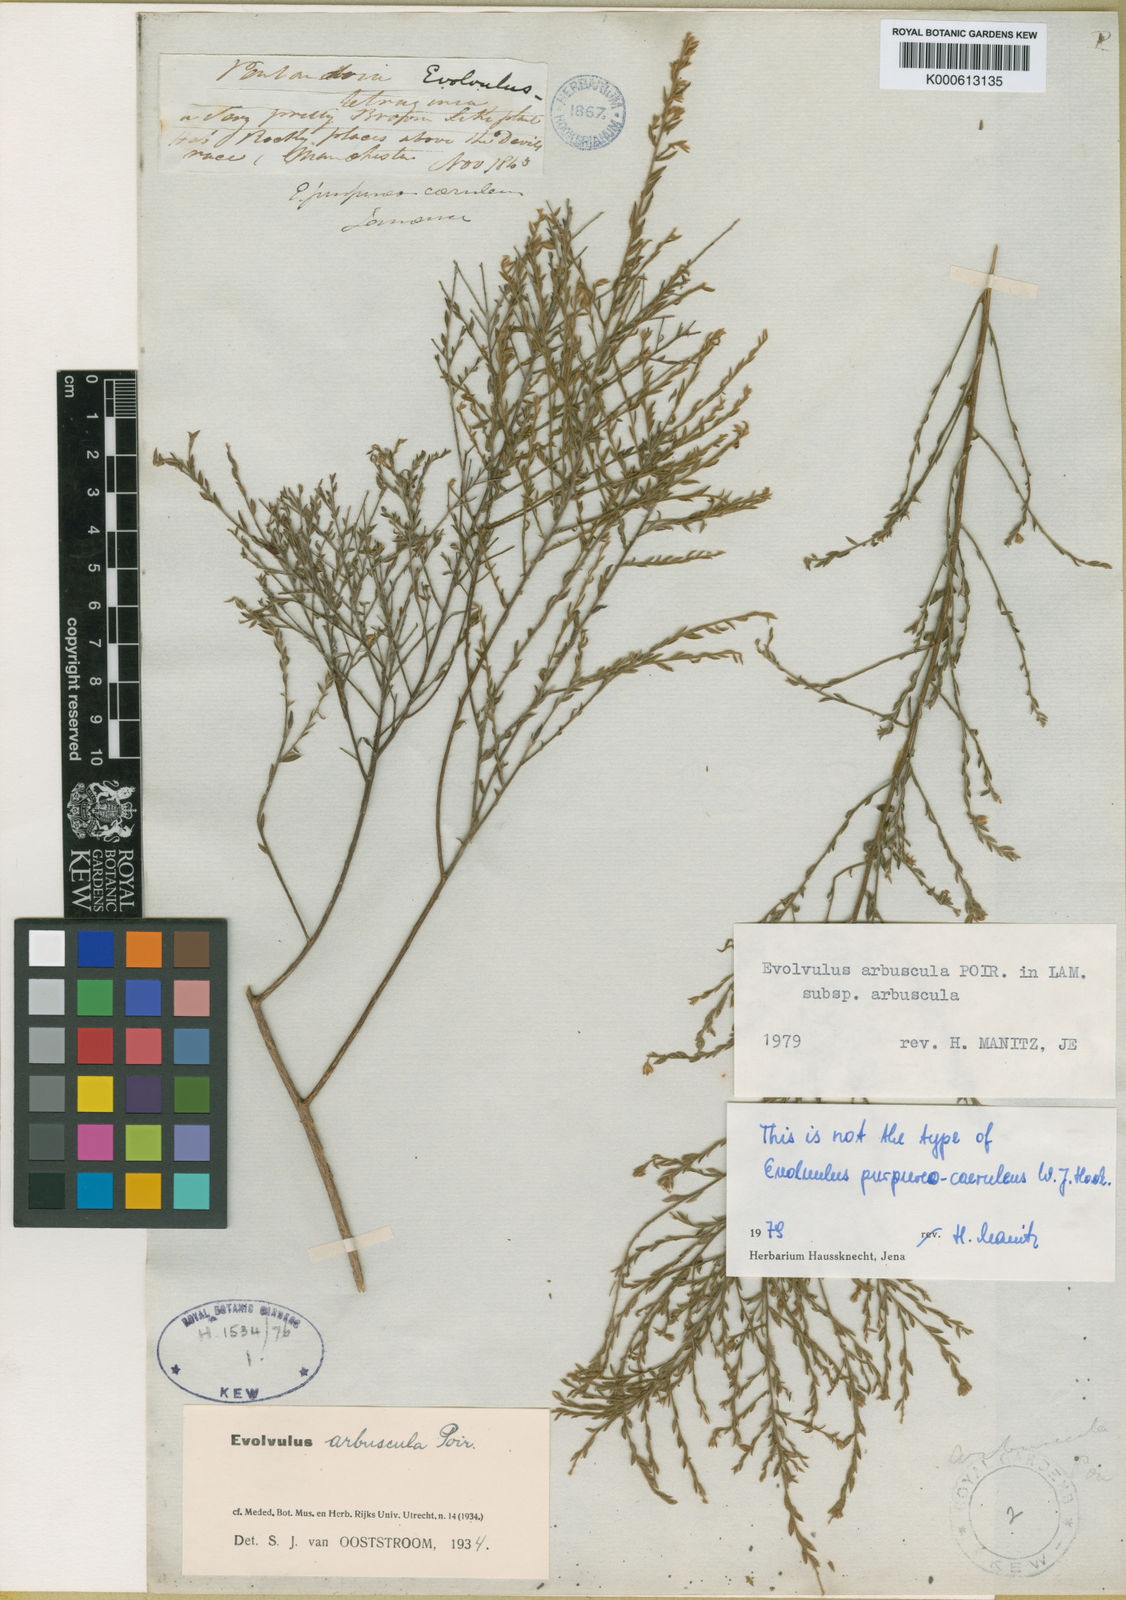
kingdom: Plantae
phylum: Tracheophyta
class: Magnoliopsida
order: Solanales
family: Convolvulaceae
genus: Evolvulus
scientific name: Evolvulus arbuscula
